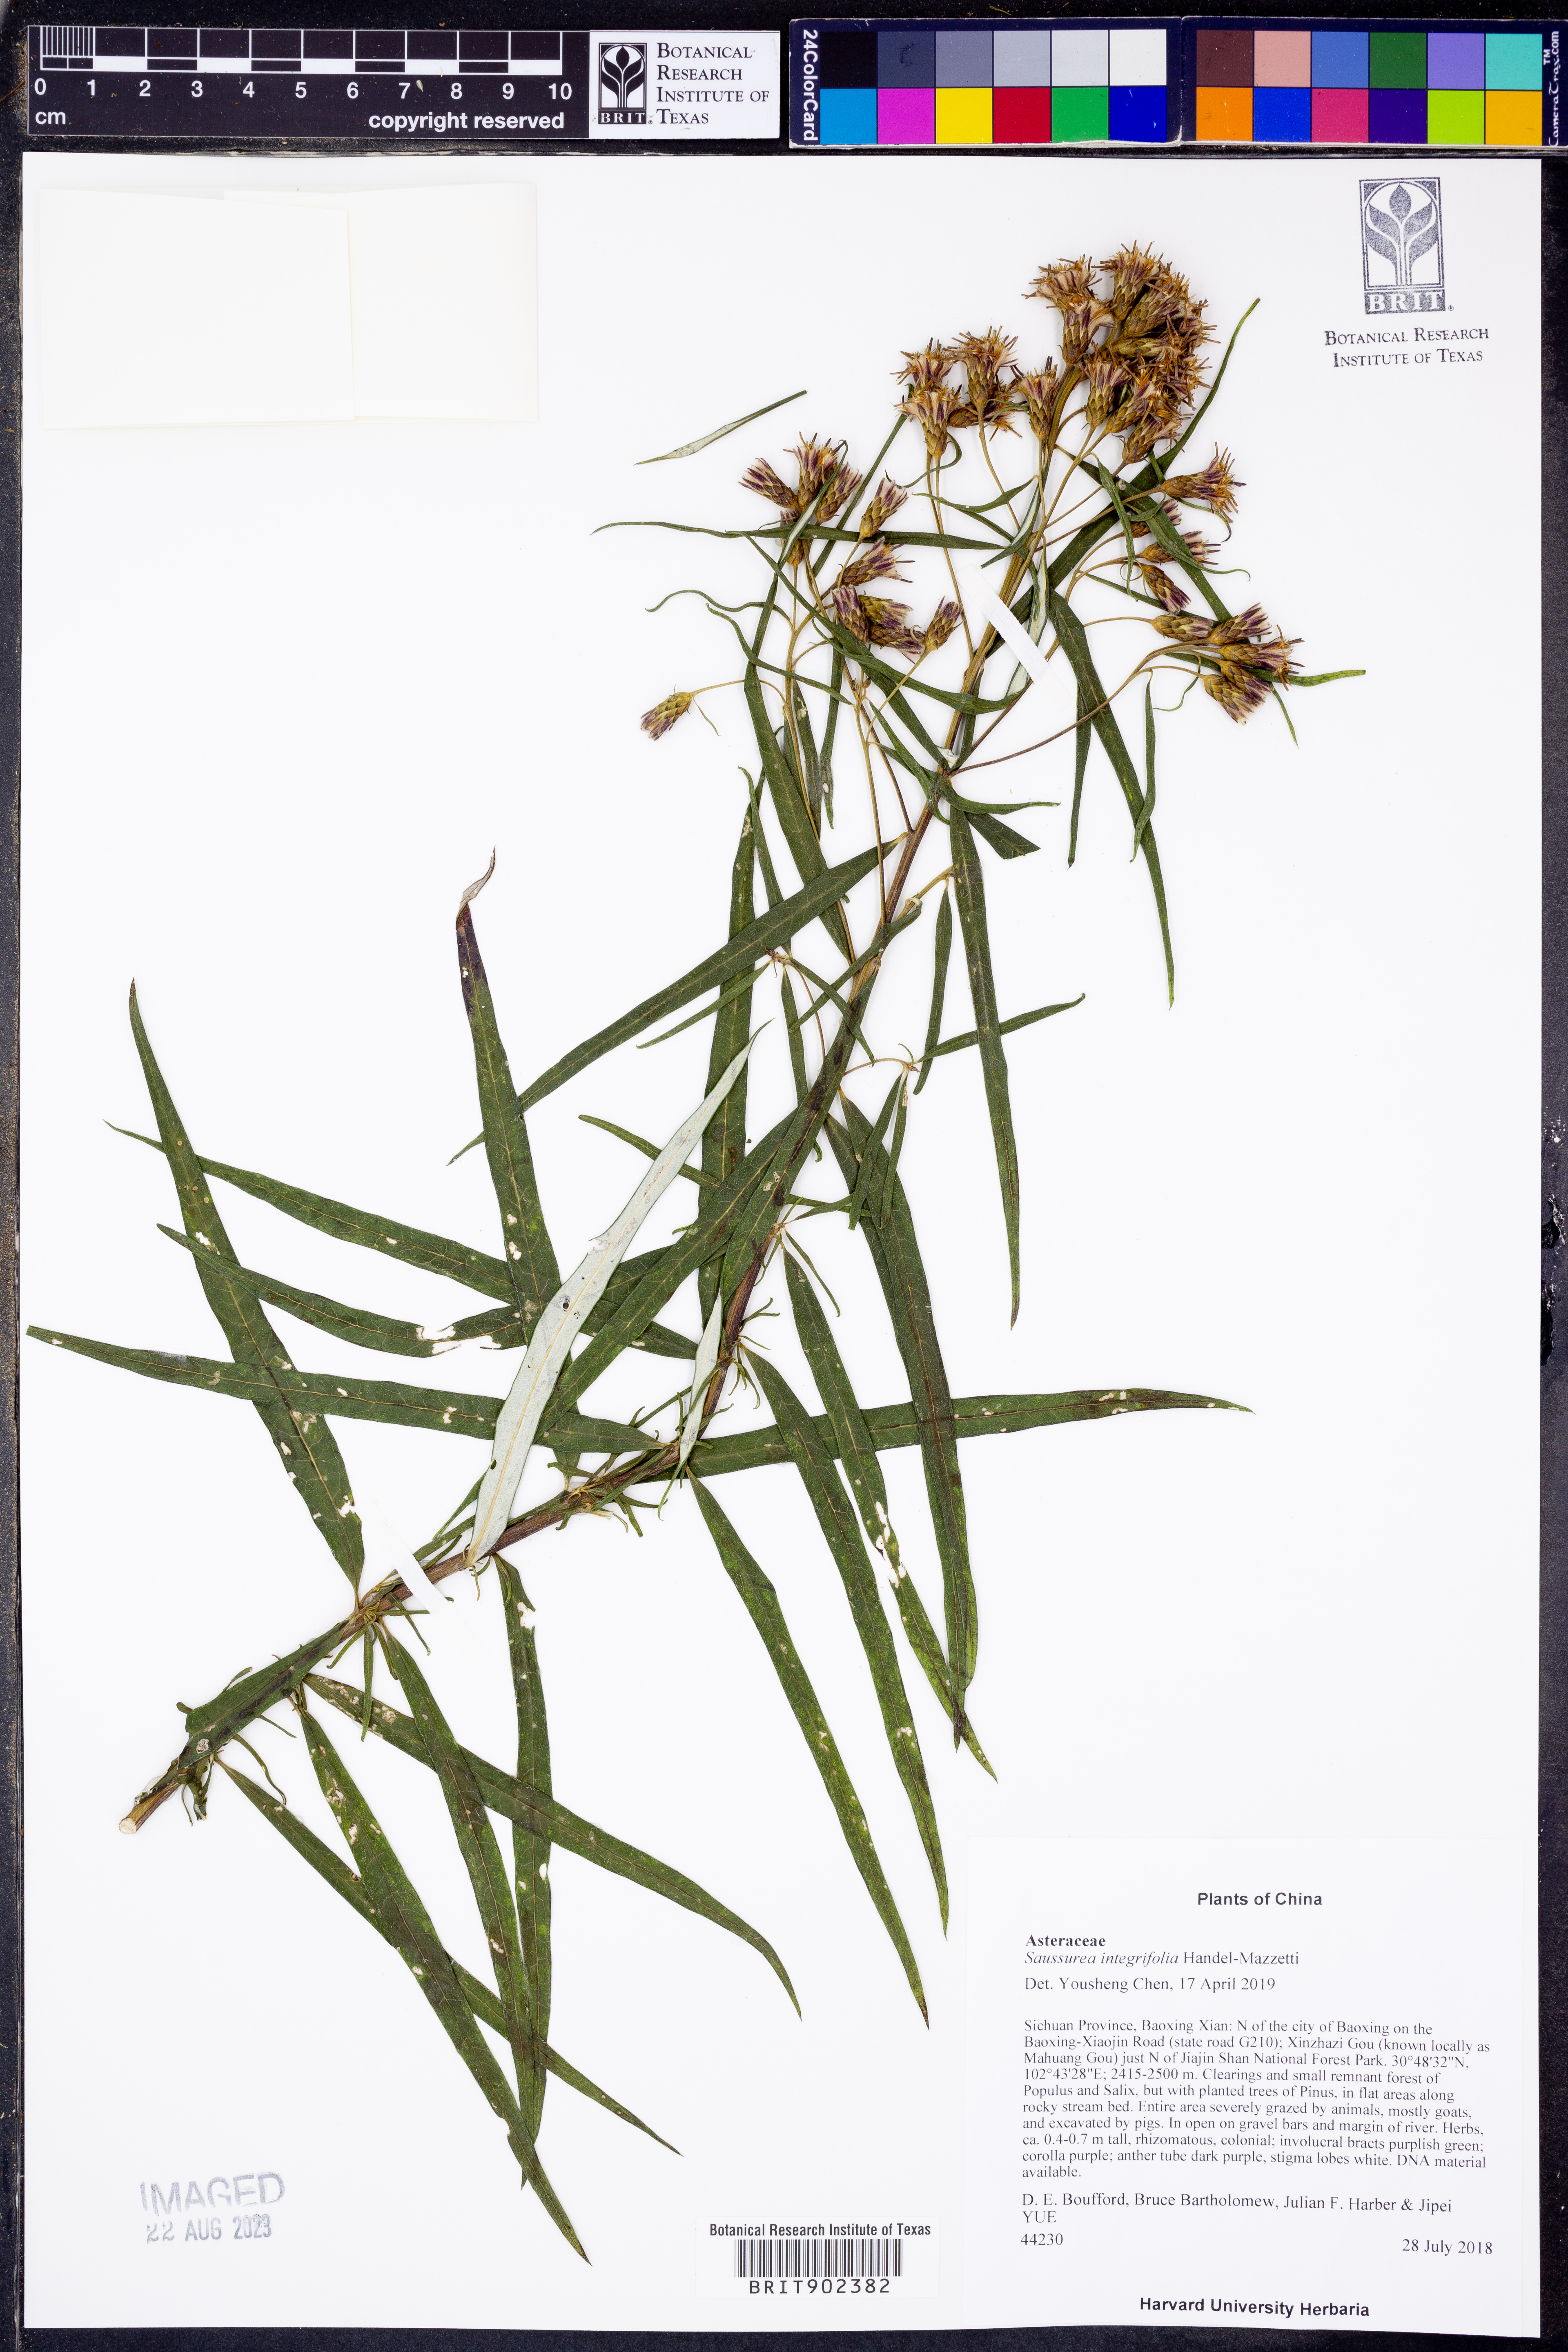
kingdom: Plantae
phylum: Tracheophyta
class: Magnoliopsida
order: Asterales
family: Asteraceae
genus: Saussurea
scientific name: Saussurea
